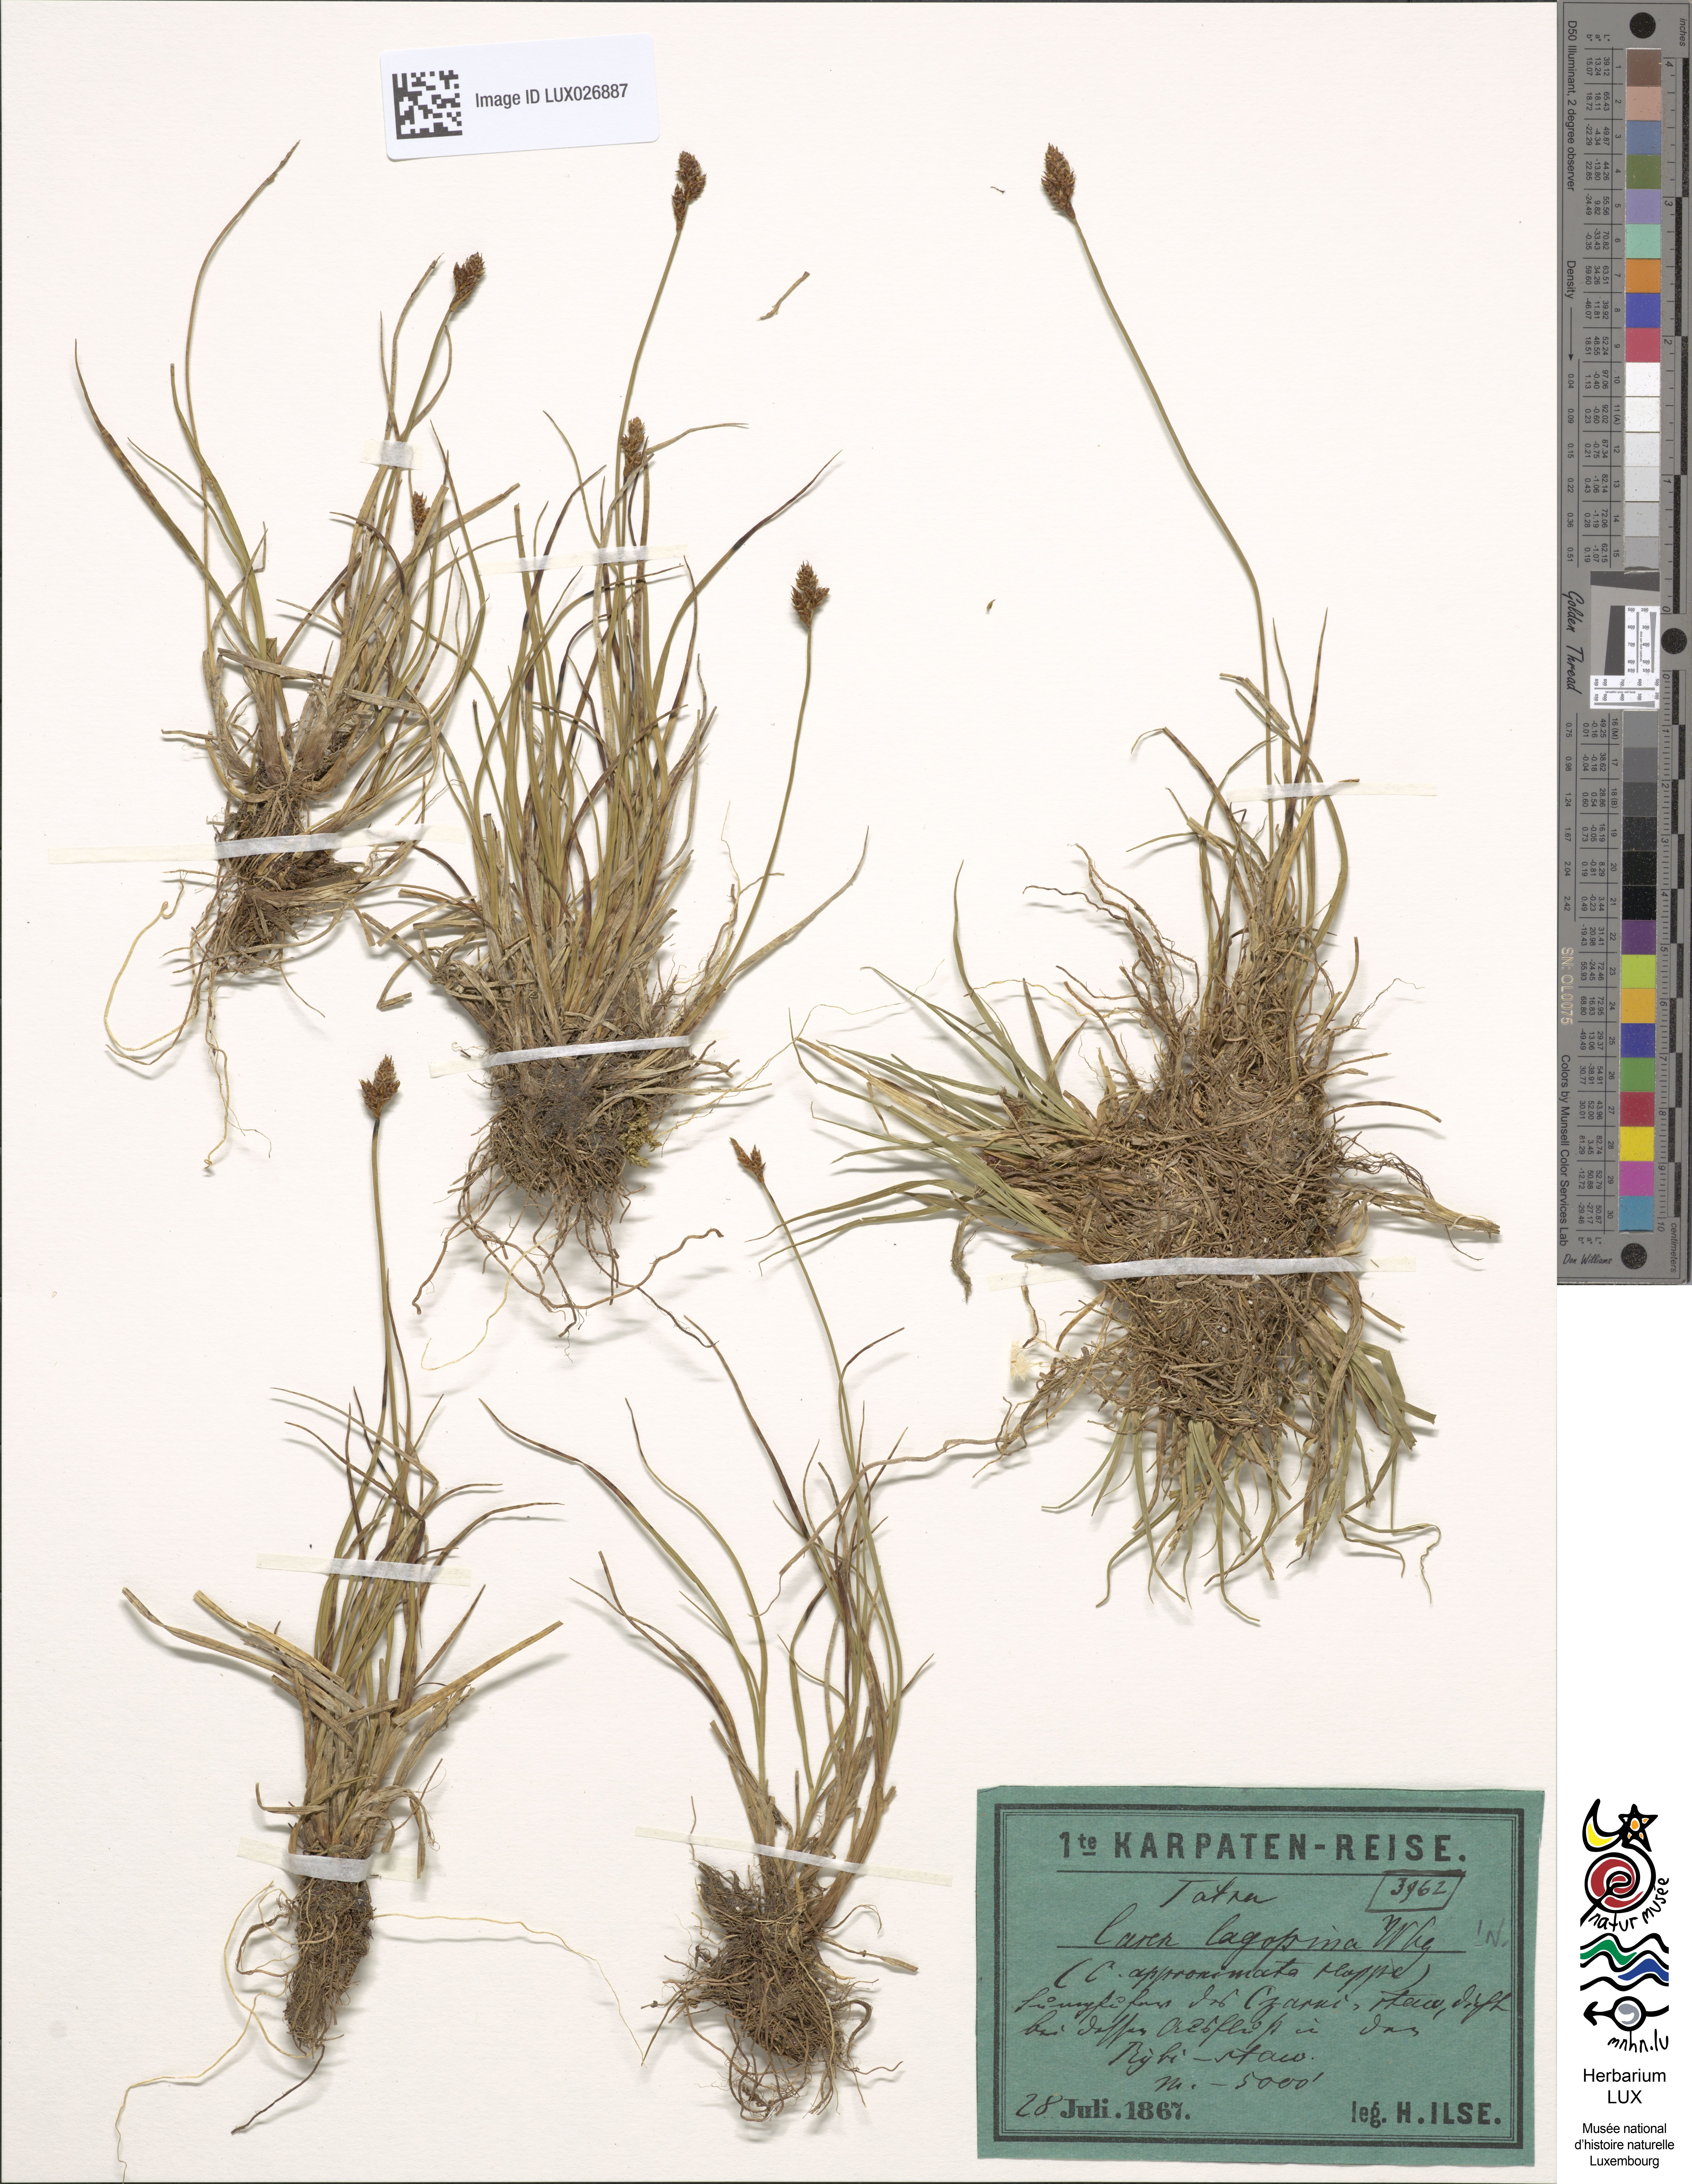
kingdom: Plantae
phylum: Tracheophyta
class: Liliopsida
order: Poales
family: Cyperaceae
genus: Carex
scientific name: Carex lachenalii
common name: Hare's-foot sedge
